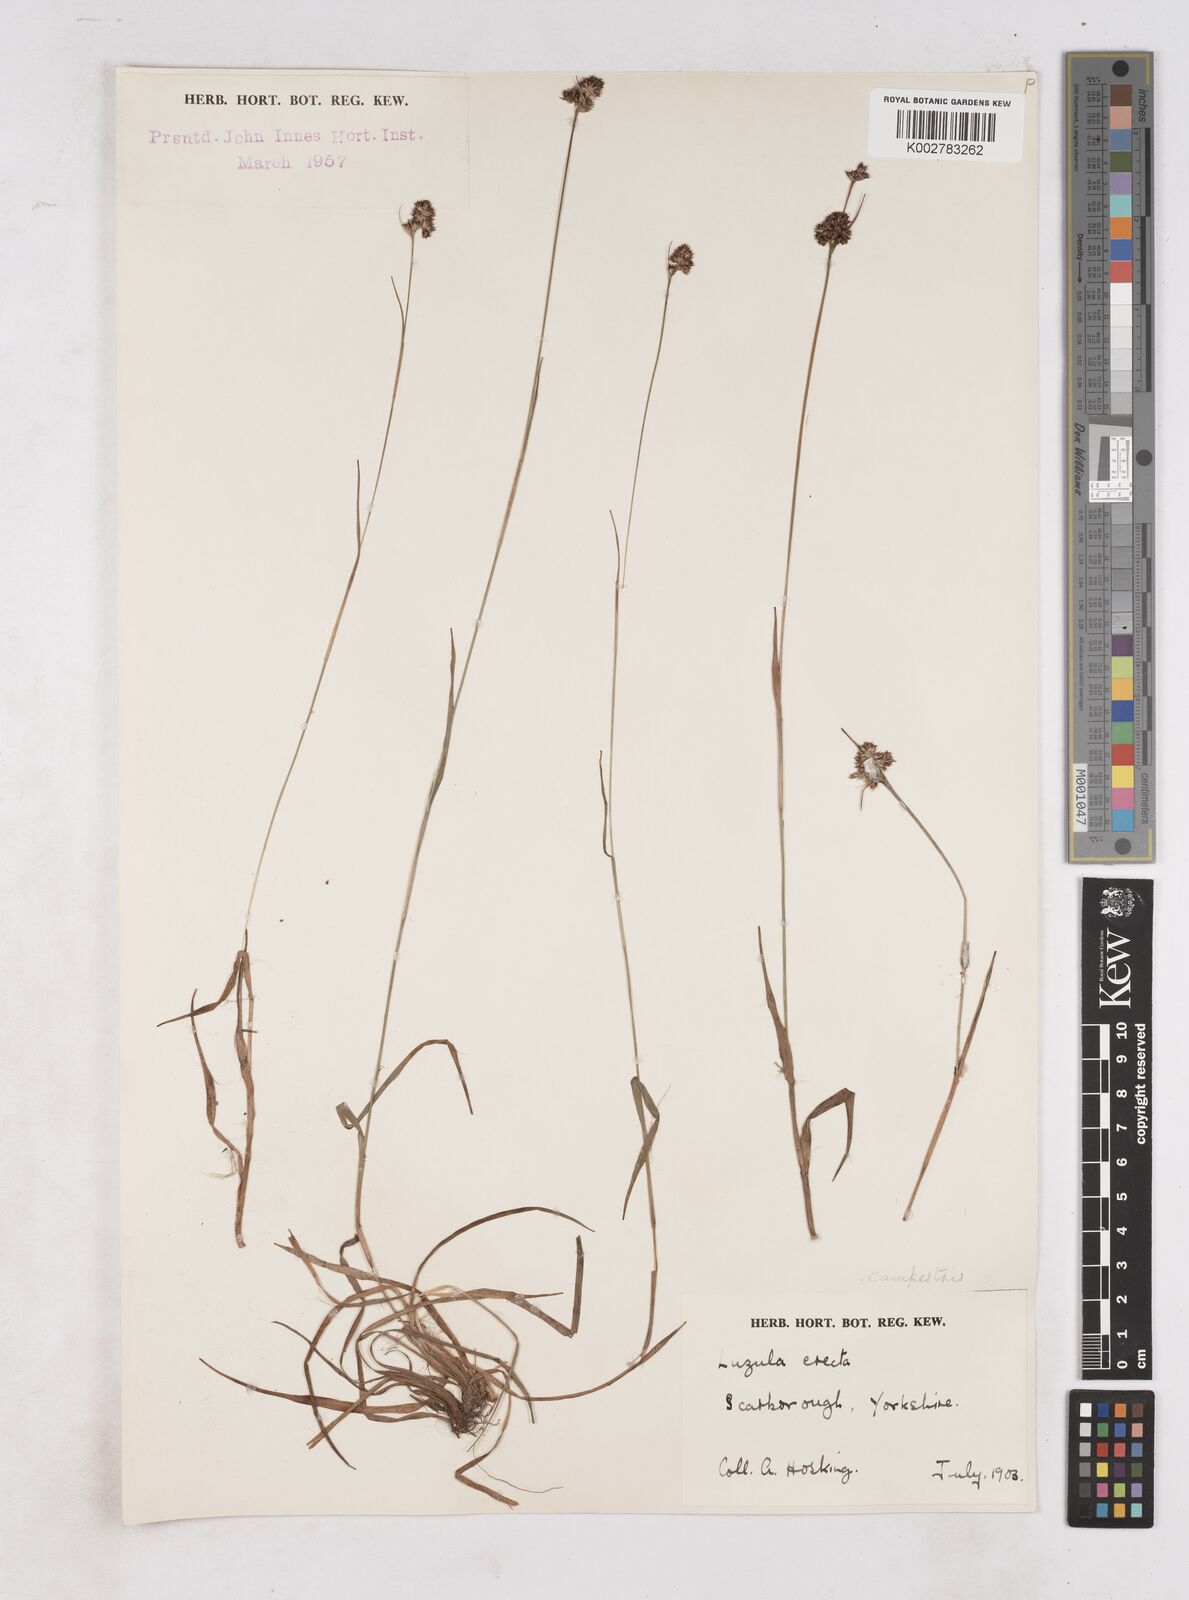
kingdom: Plantae
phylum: Tracheophyta
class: Liliopsida
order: Poales
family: Juncaceae
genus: Luzula
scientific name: Luzula multiflora
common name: Heath wood-rush
